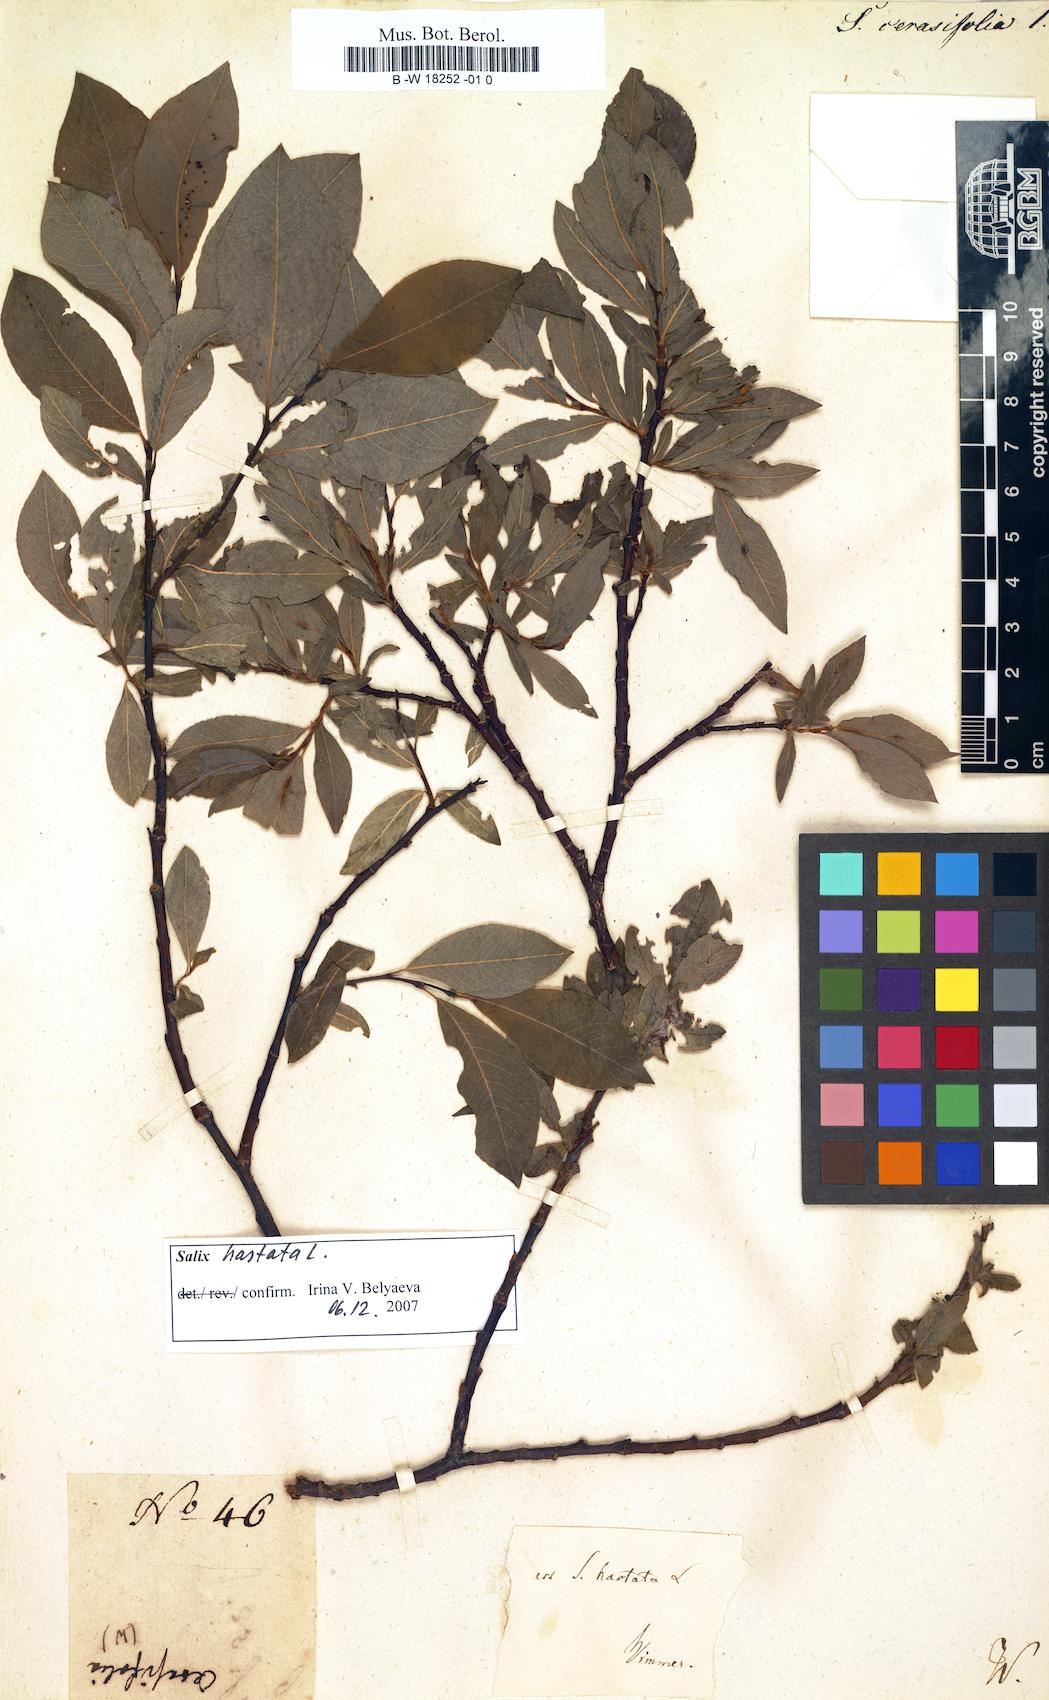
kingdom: Plantae
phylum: Tracheophyta
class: Magnoliopsida
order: Malpighiales
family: Salicaceae
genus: Salix
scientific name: Salix
